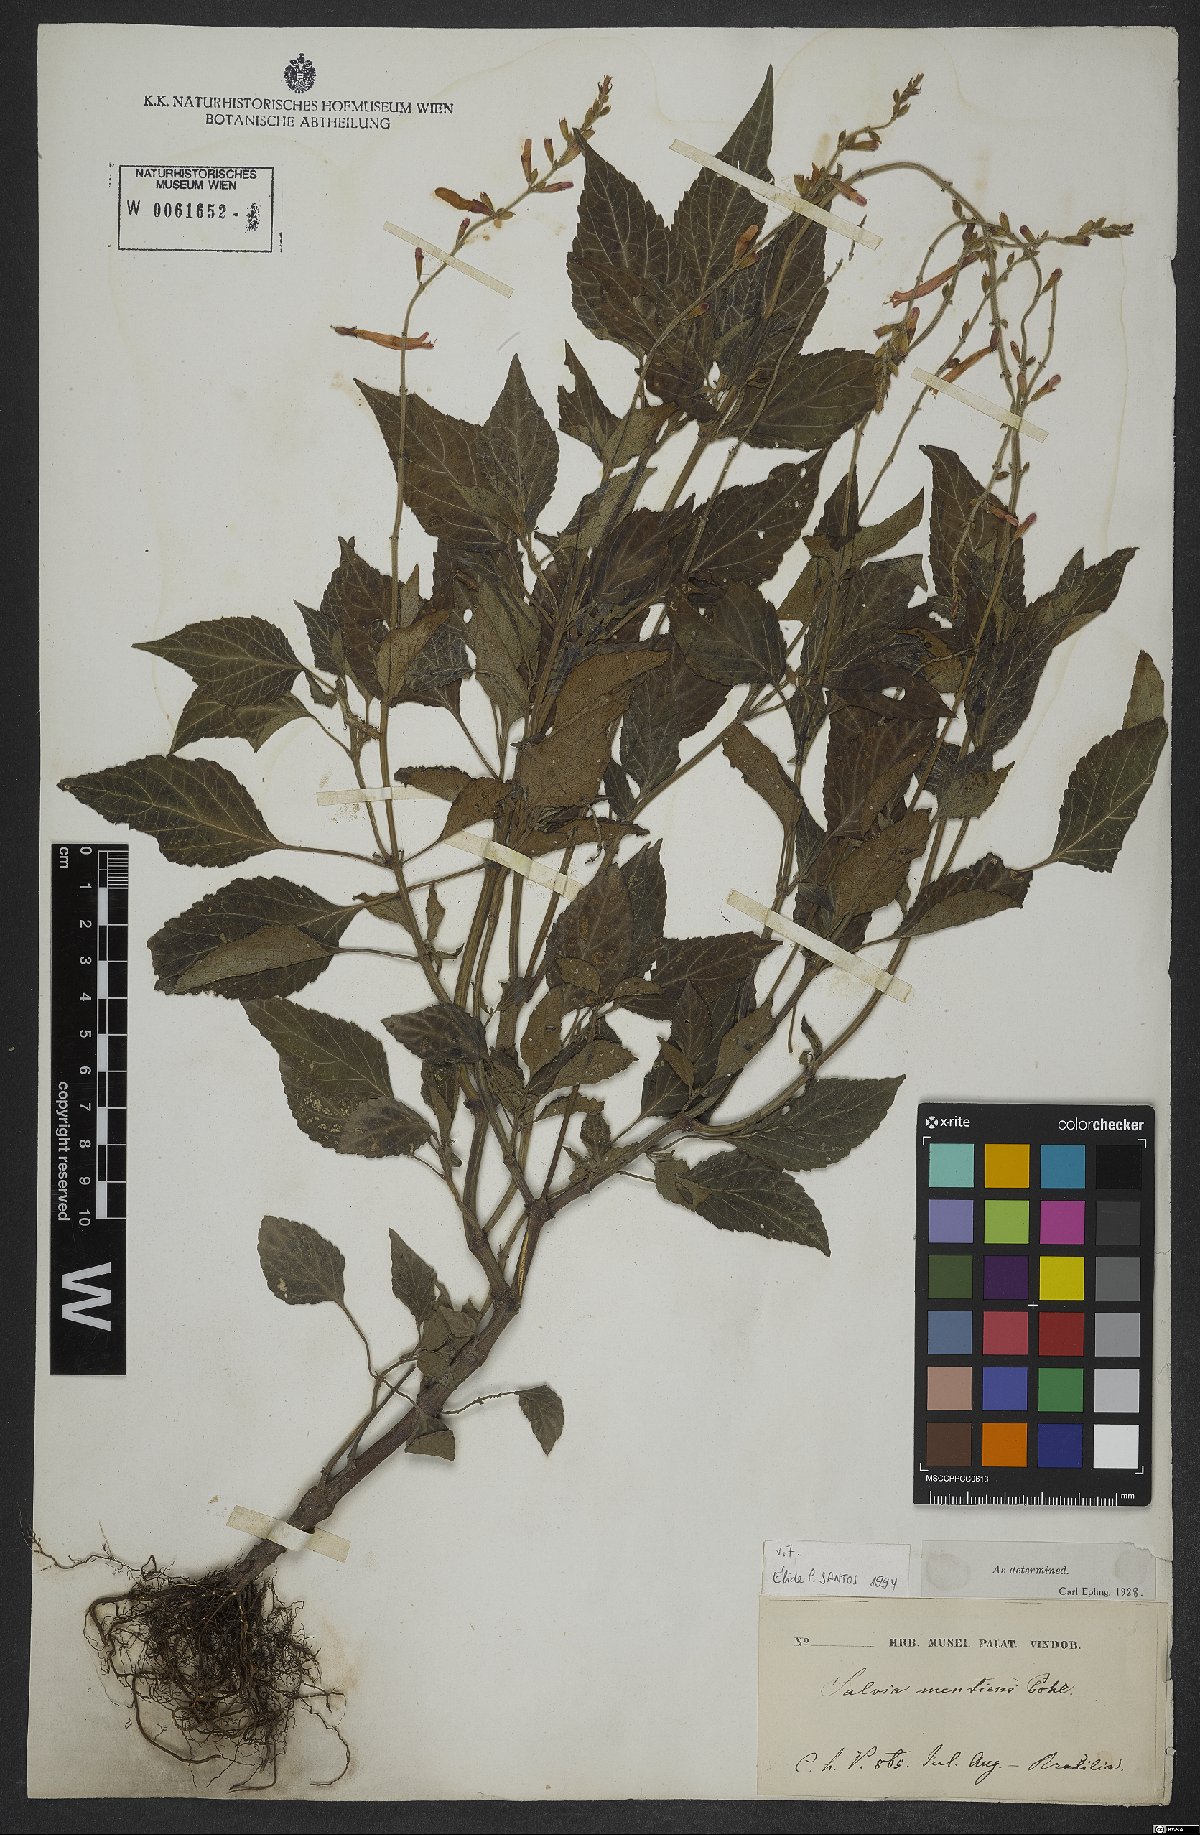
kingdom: Plantae
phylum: Tracheophyta
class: Magnoliopsida
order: Lamiales
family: Lamiaceae
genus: Salvia
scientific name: Salvia mentiens
